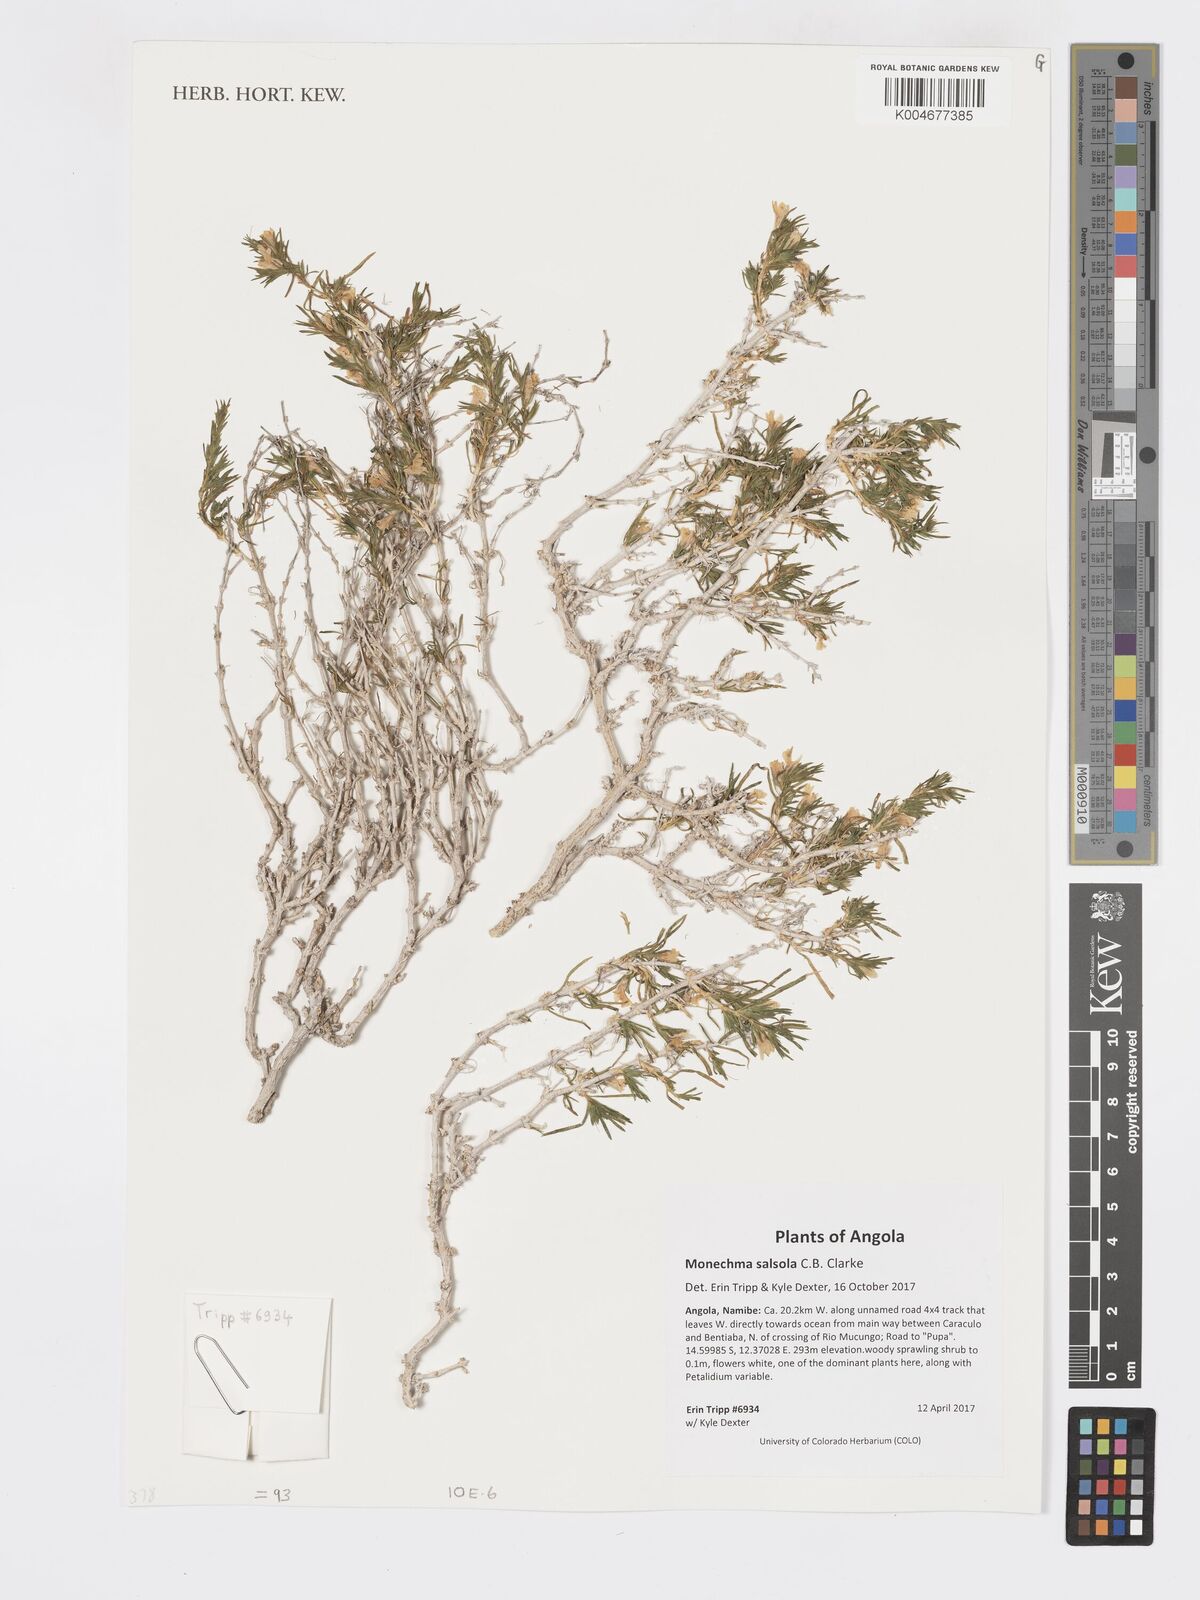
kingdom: Plantae
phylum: Tracheophyta
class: Magnoliopsida
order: Lamiales
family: Acanthaceae
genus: Pogonospermum
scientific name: Pogonospermum
